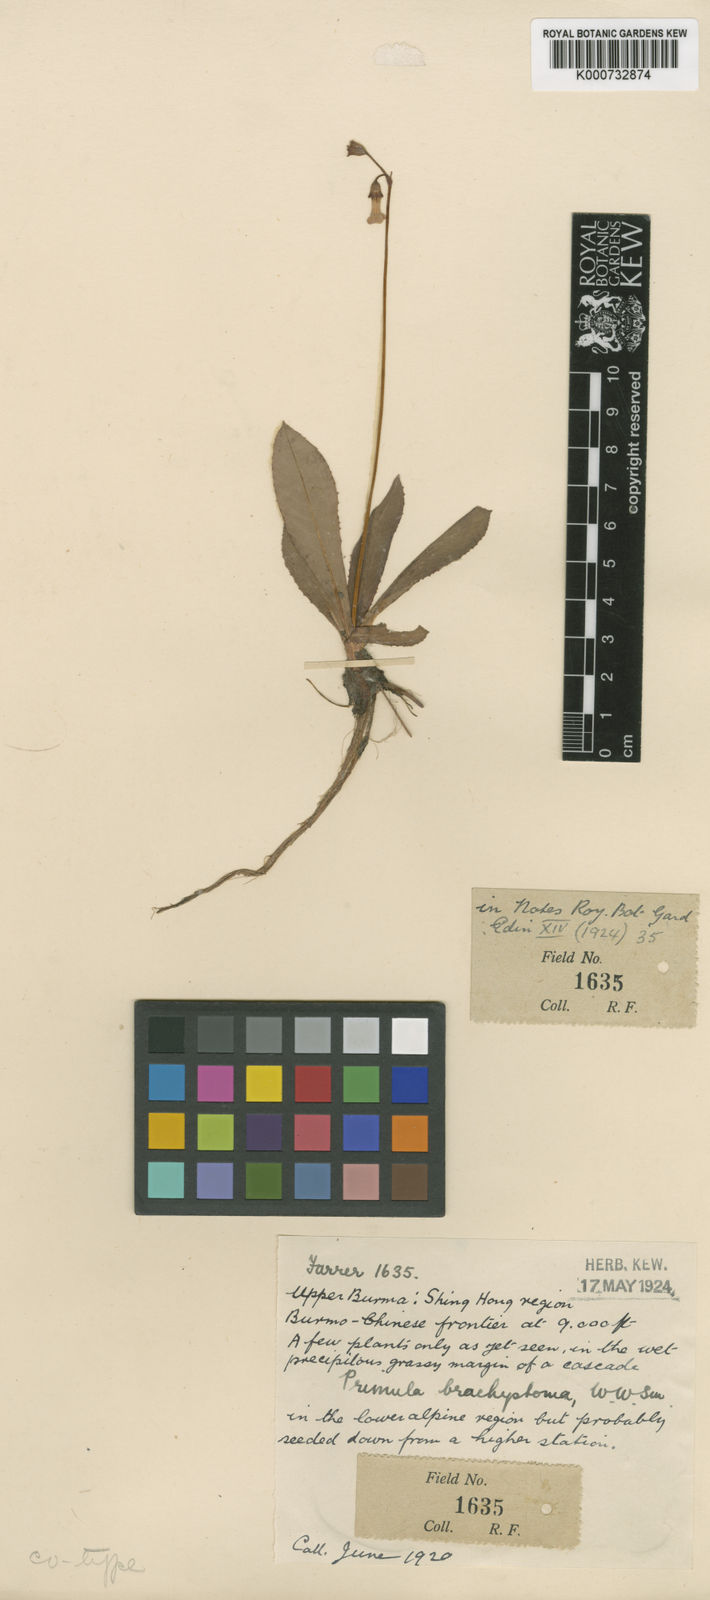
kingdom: Plantae
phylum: Tracheophyta
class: Magnoliopsida
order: Ericales
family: Primulaceae
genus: Primula
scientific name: Primula brachystoma
